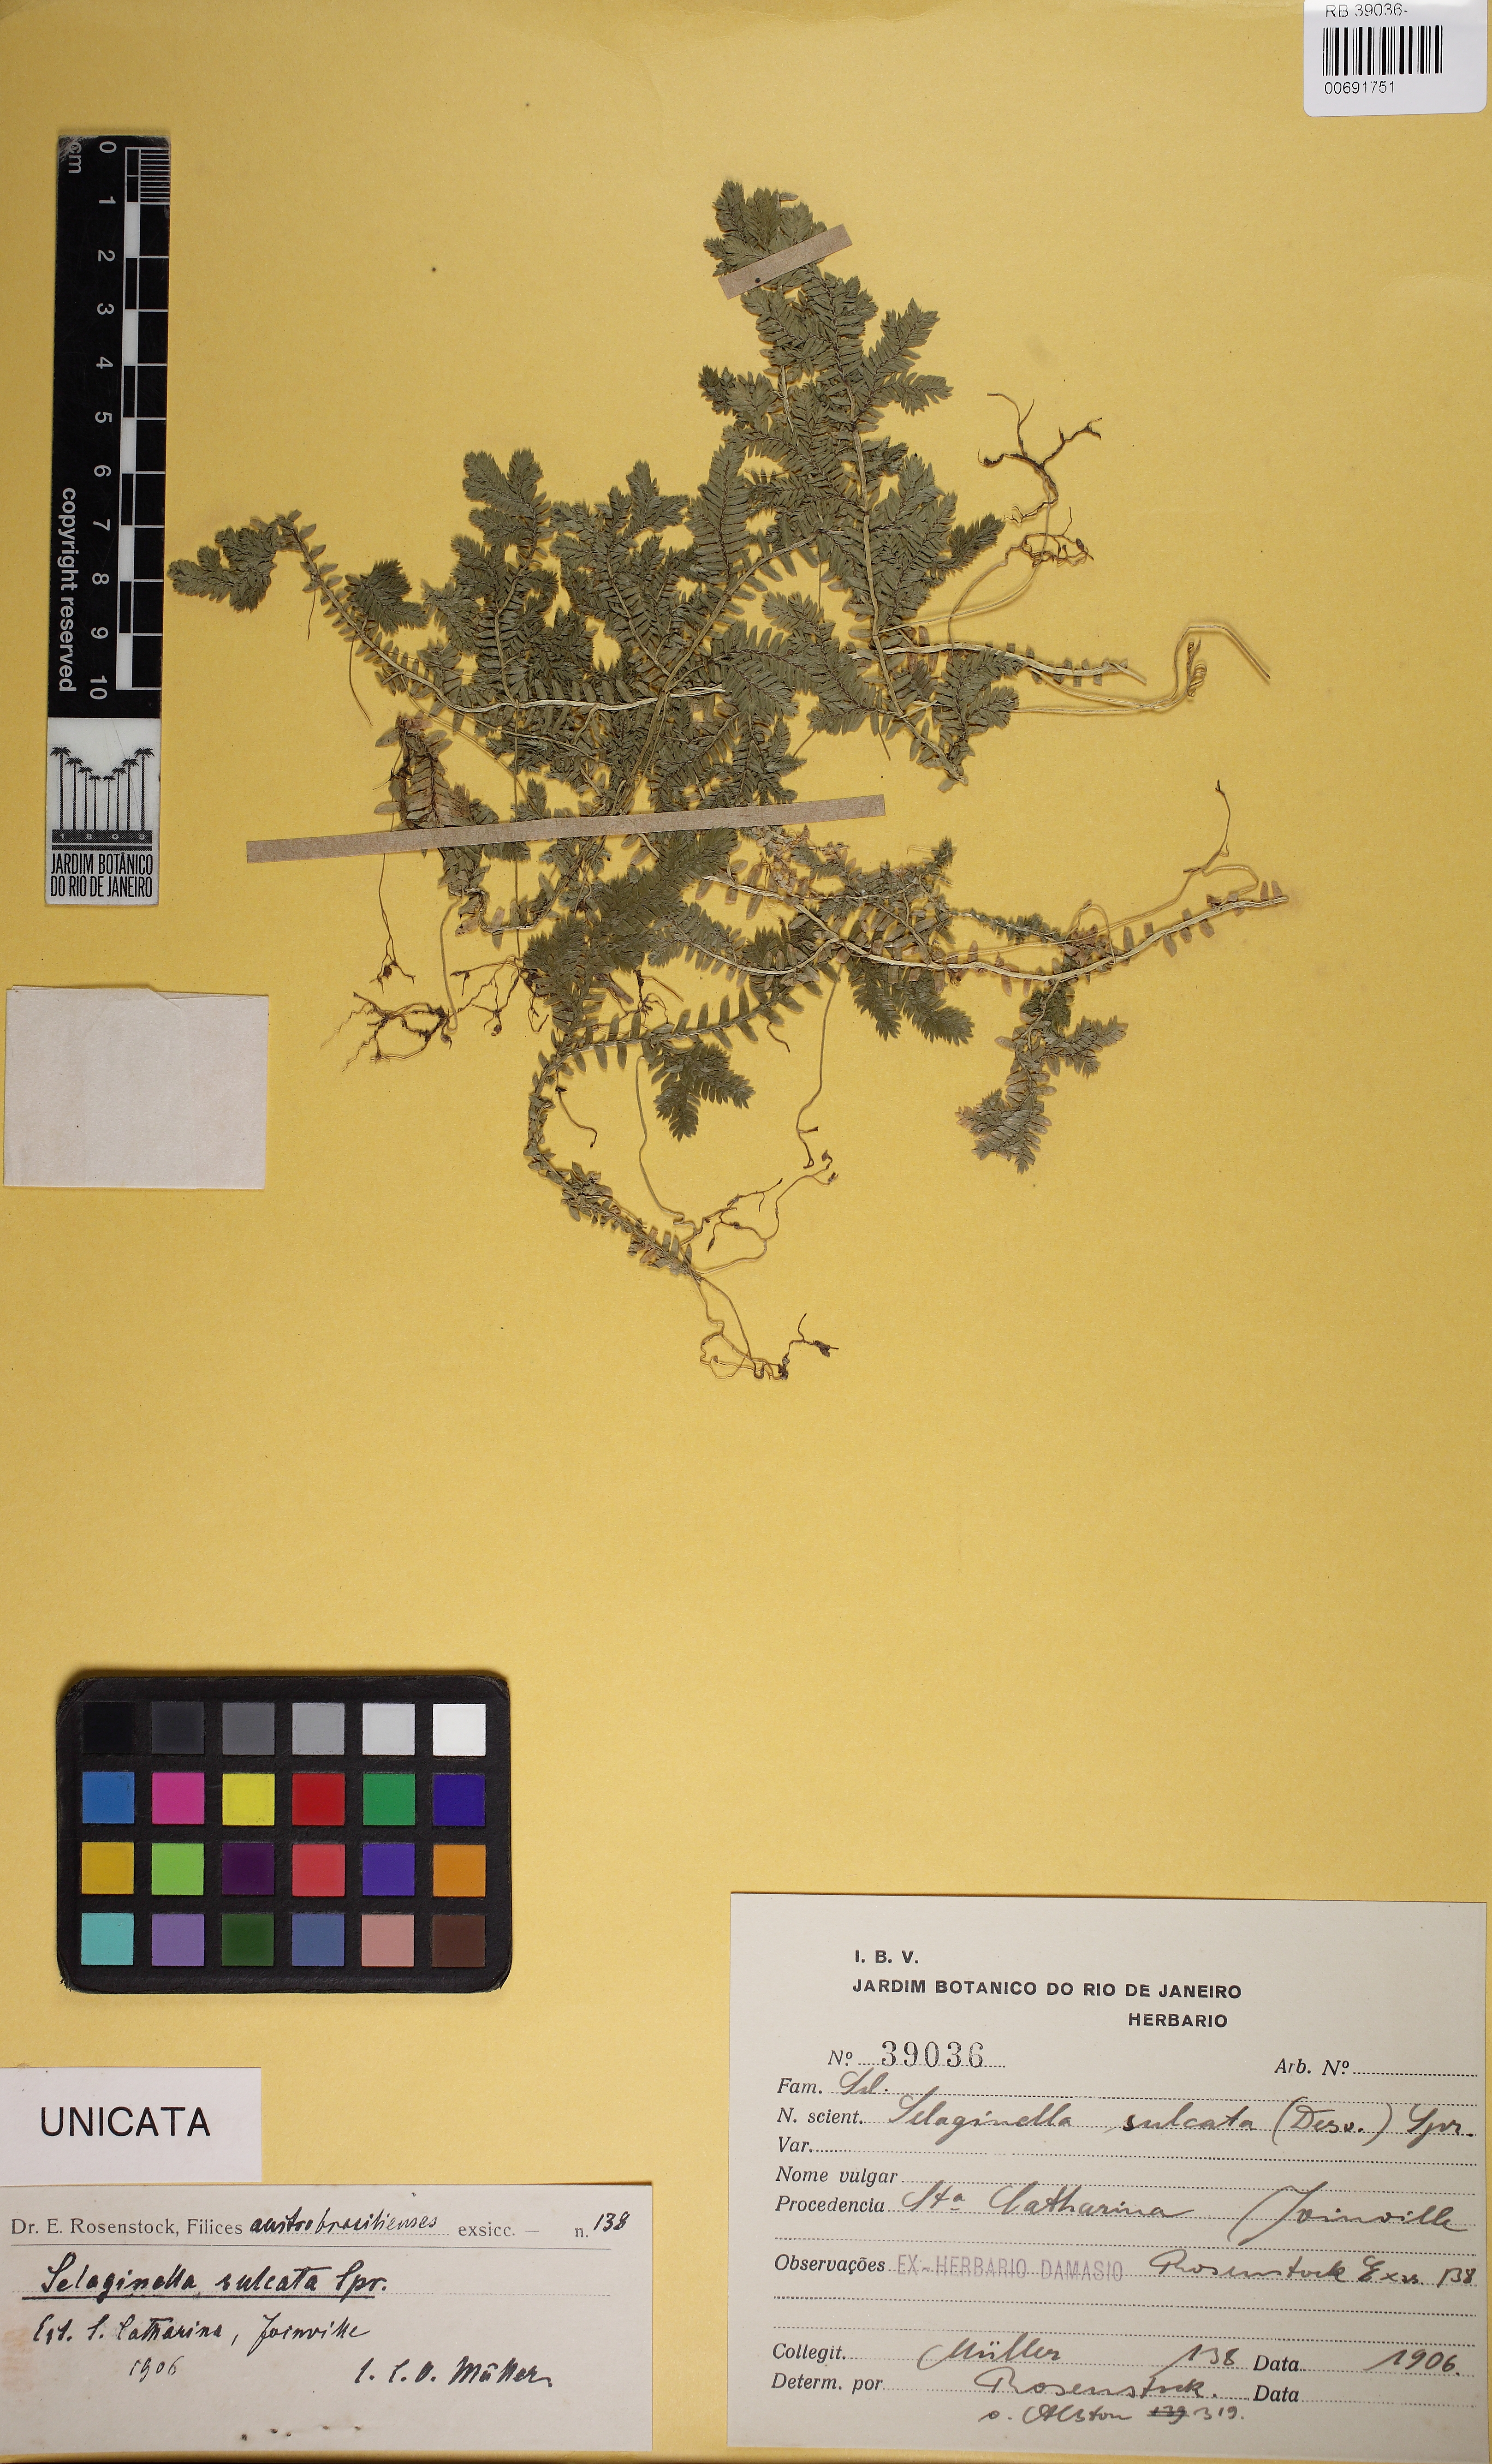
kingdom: Plantae
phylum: Tracheophyta
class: Lycopodiopsida
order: Selaginellales
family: Selaginellaceae
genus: Selaginella
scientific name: Selaginella sulcata
